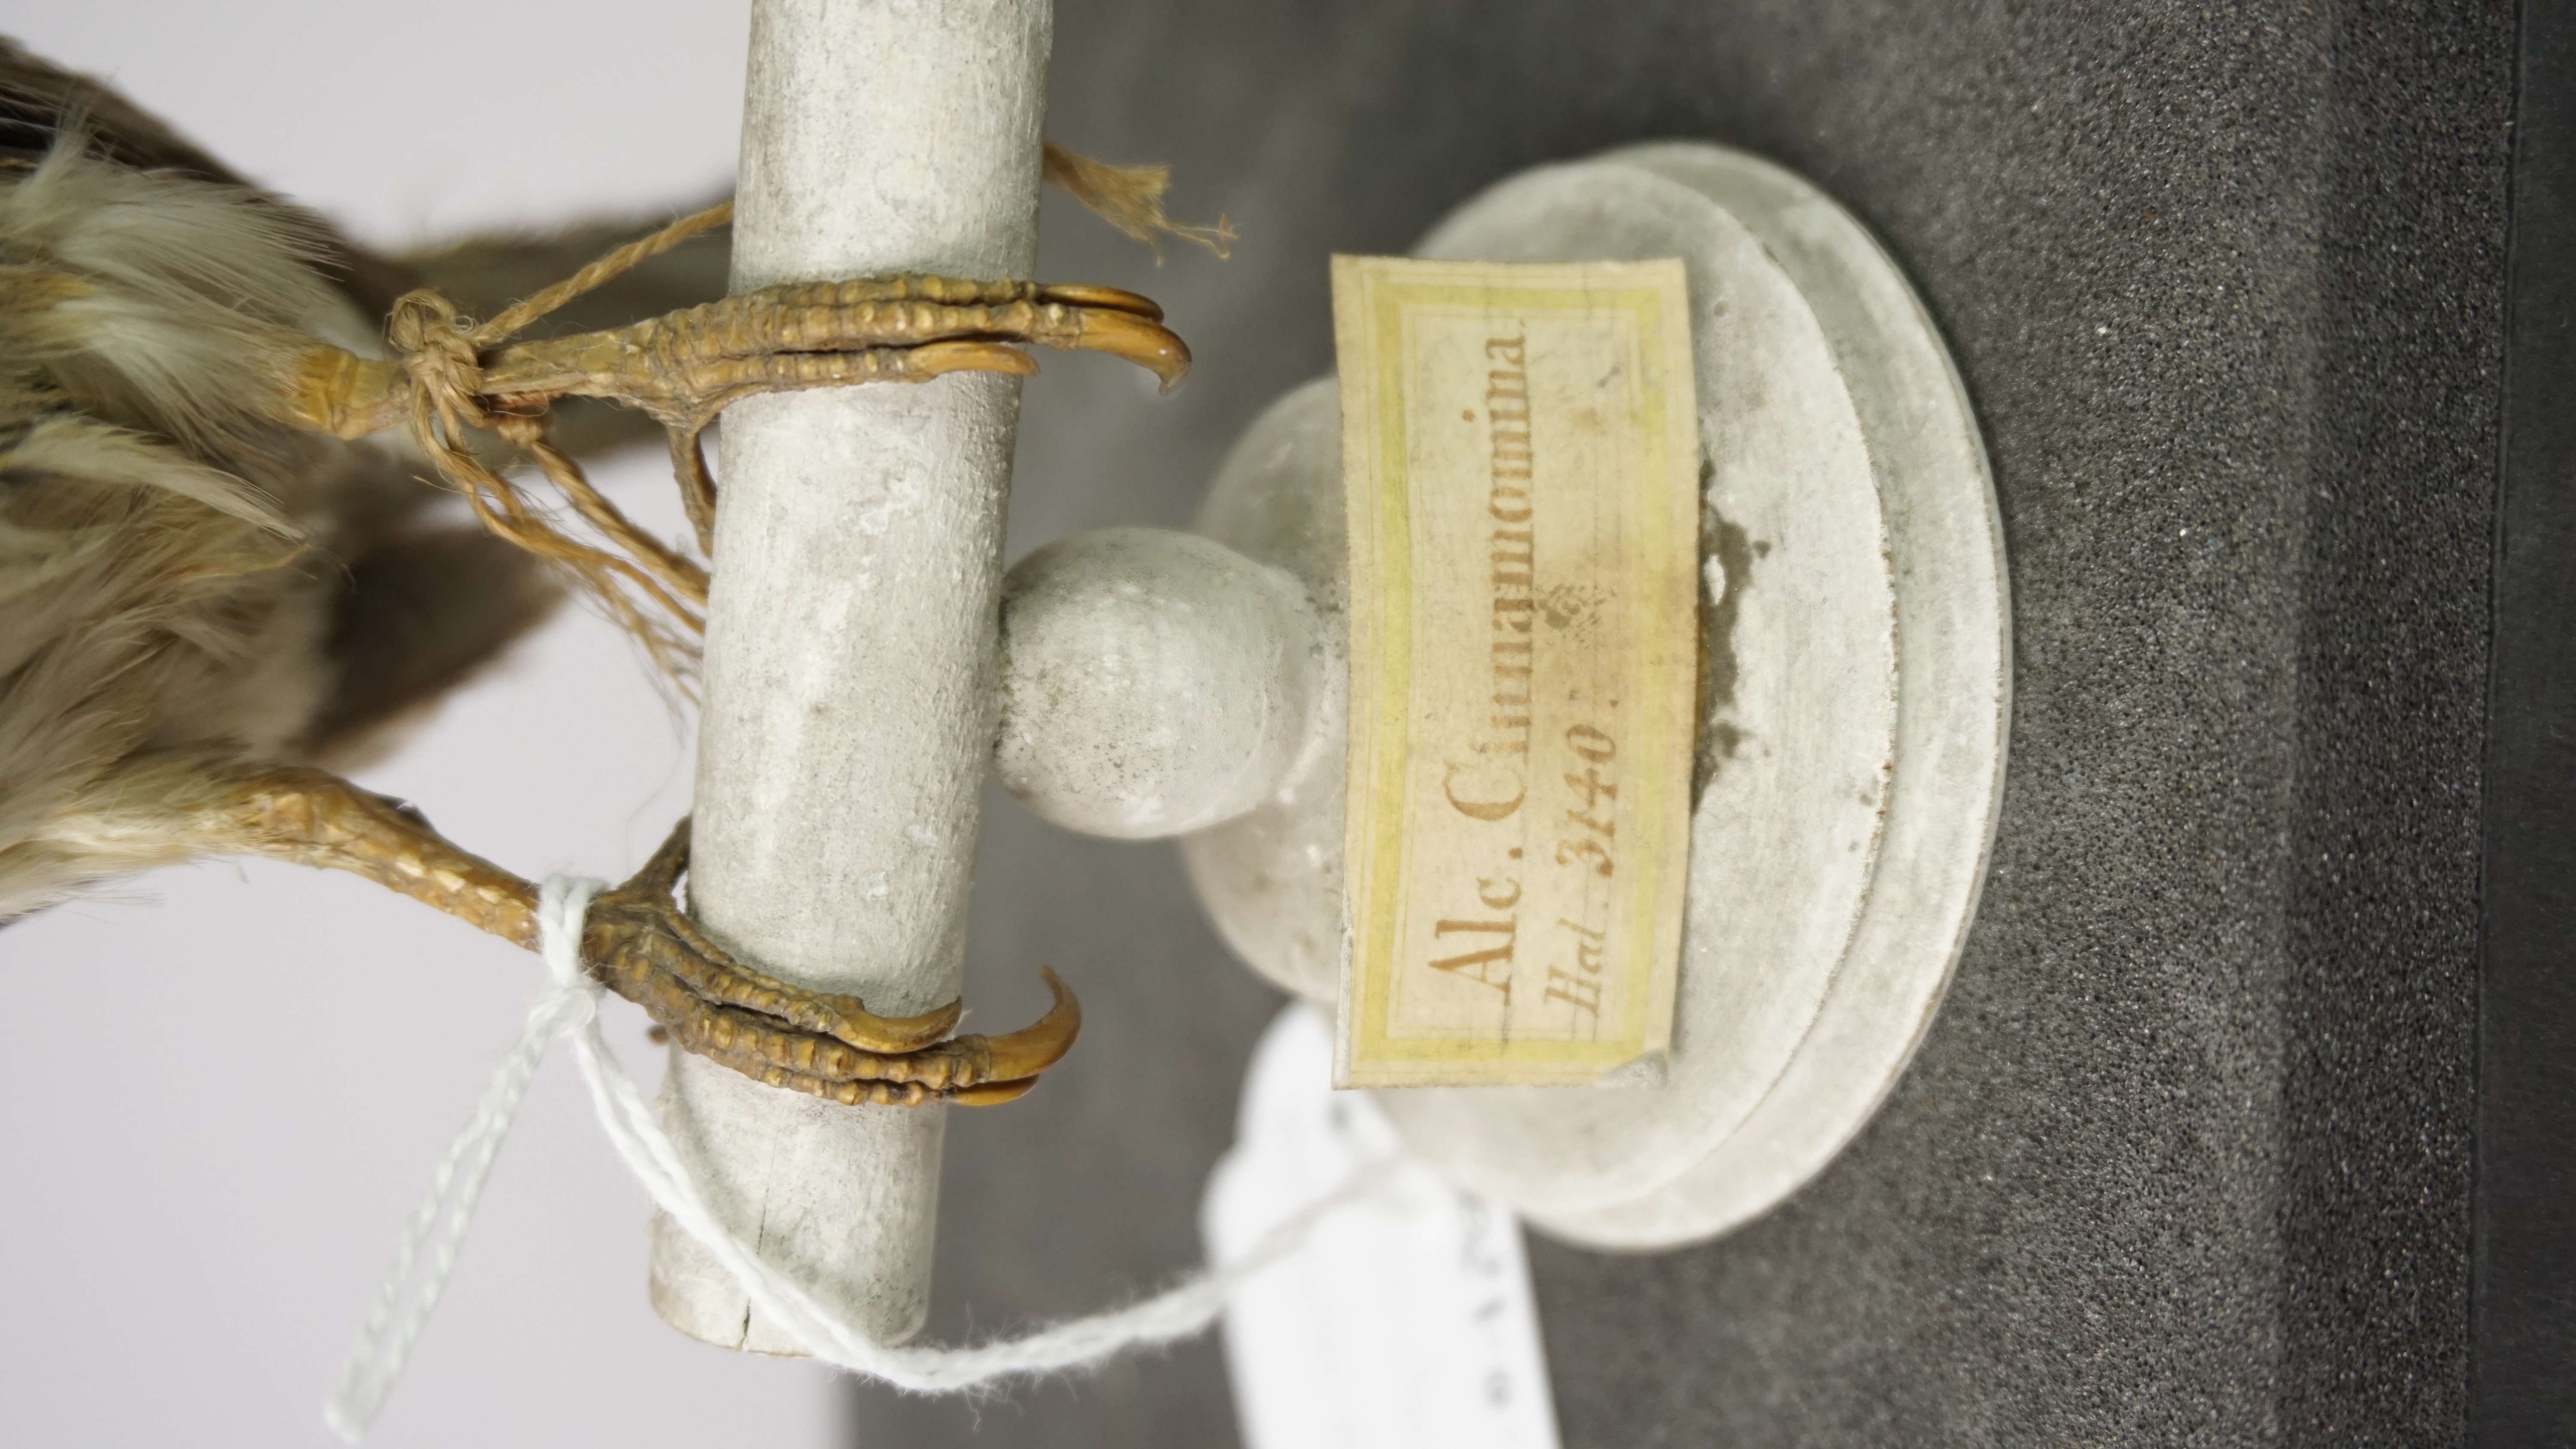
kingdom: Animalia
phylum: Chordata
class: Aves
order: Coraciiformes
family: Alcedinidae
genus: Todiramphus
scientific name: Todiramphus cinnamominus
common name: Guam kingfisher
